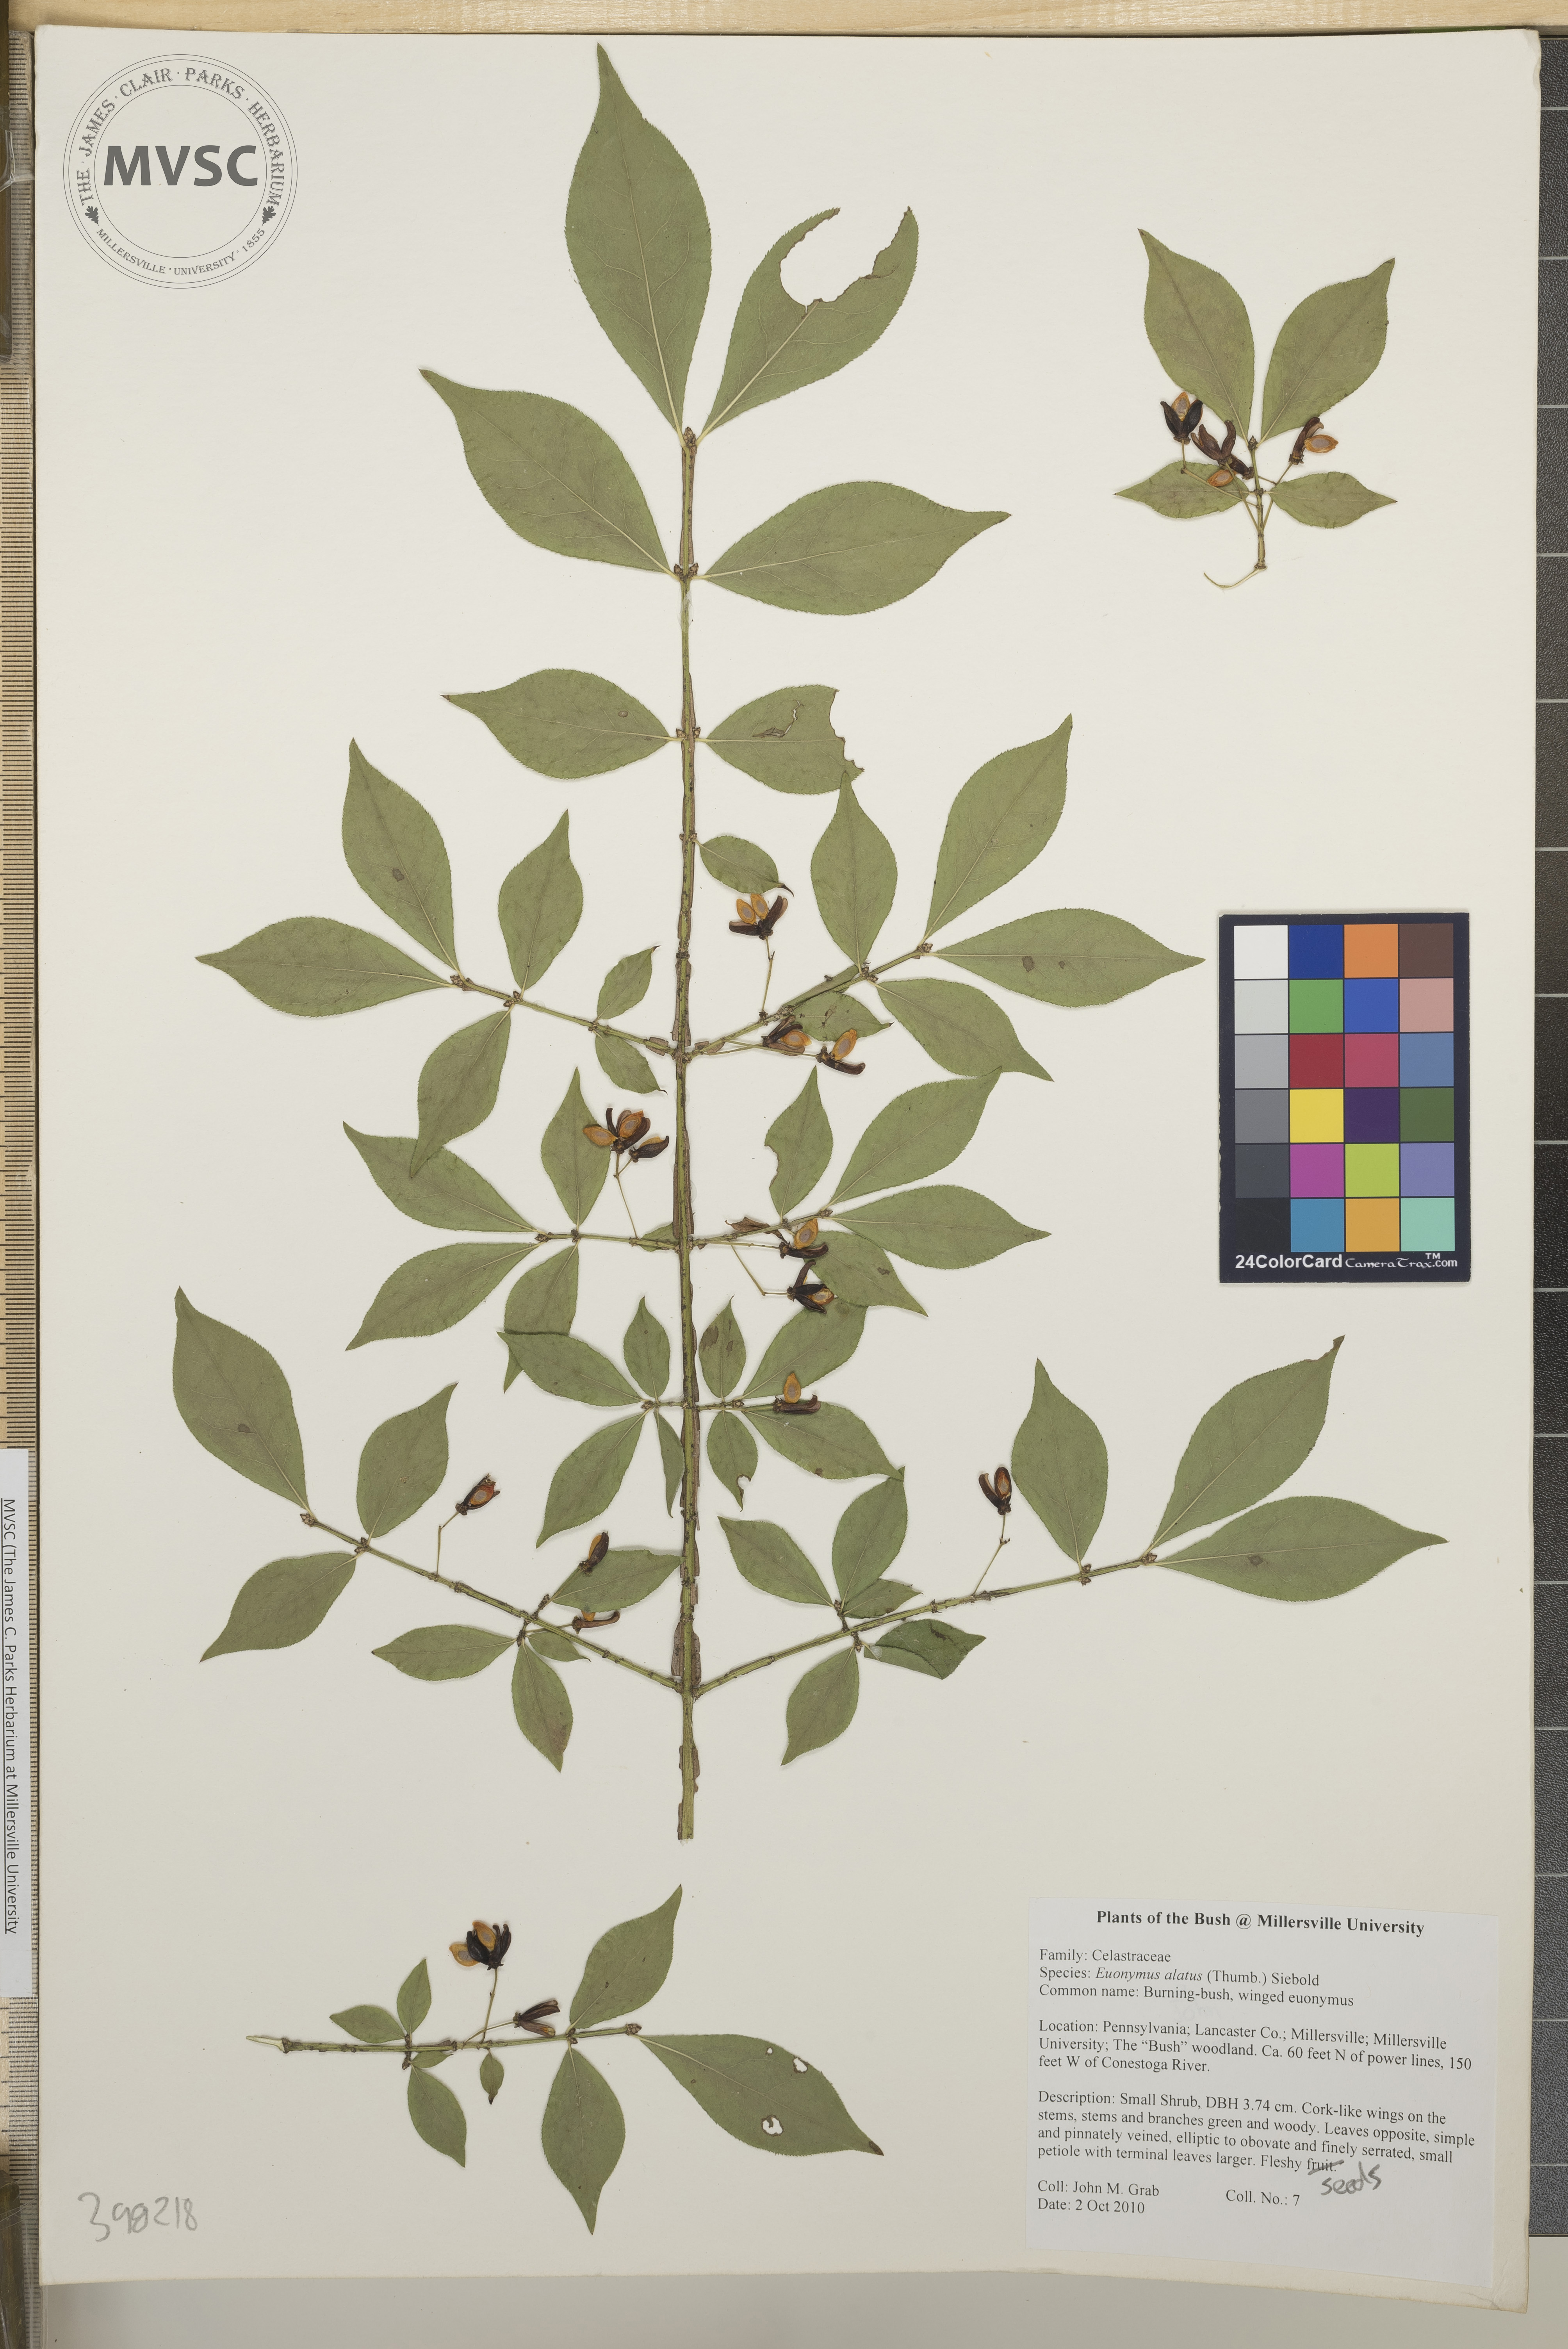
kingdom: Plantae
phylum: Tracheophyta
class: Magnoliopsida
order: Celastrales
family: Celastraceae
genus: Euonymus
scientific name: Euonymus alatus
